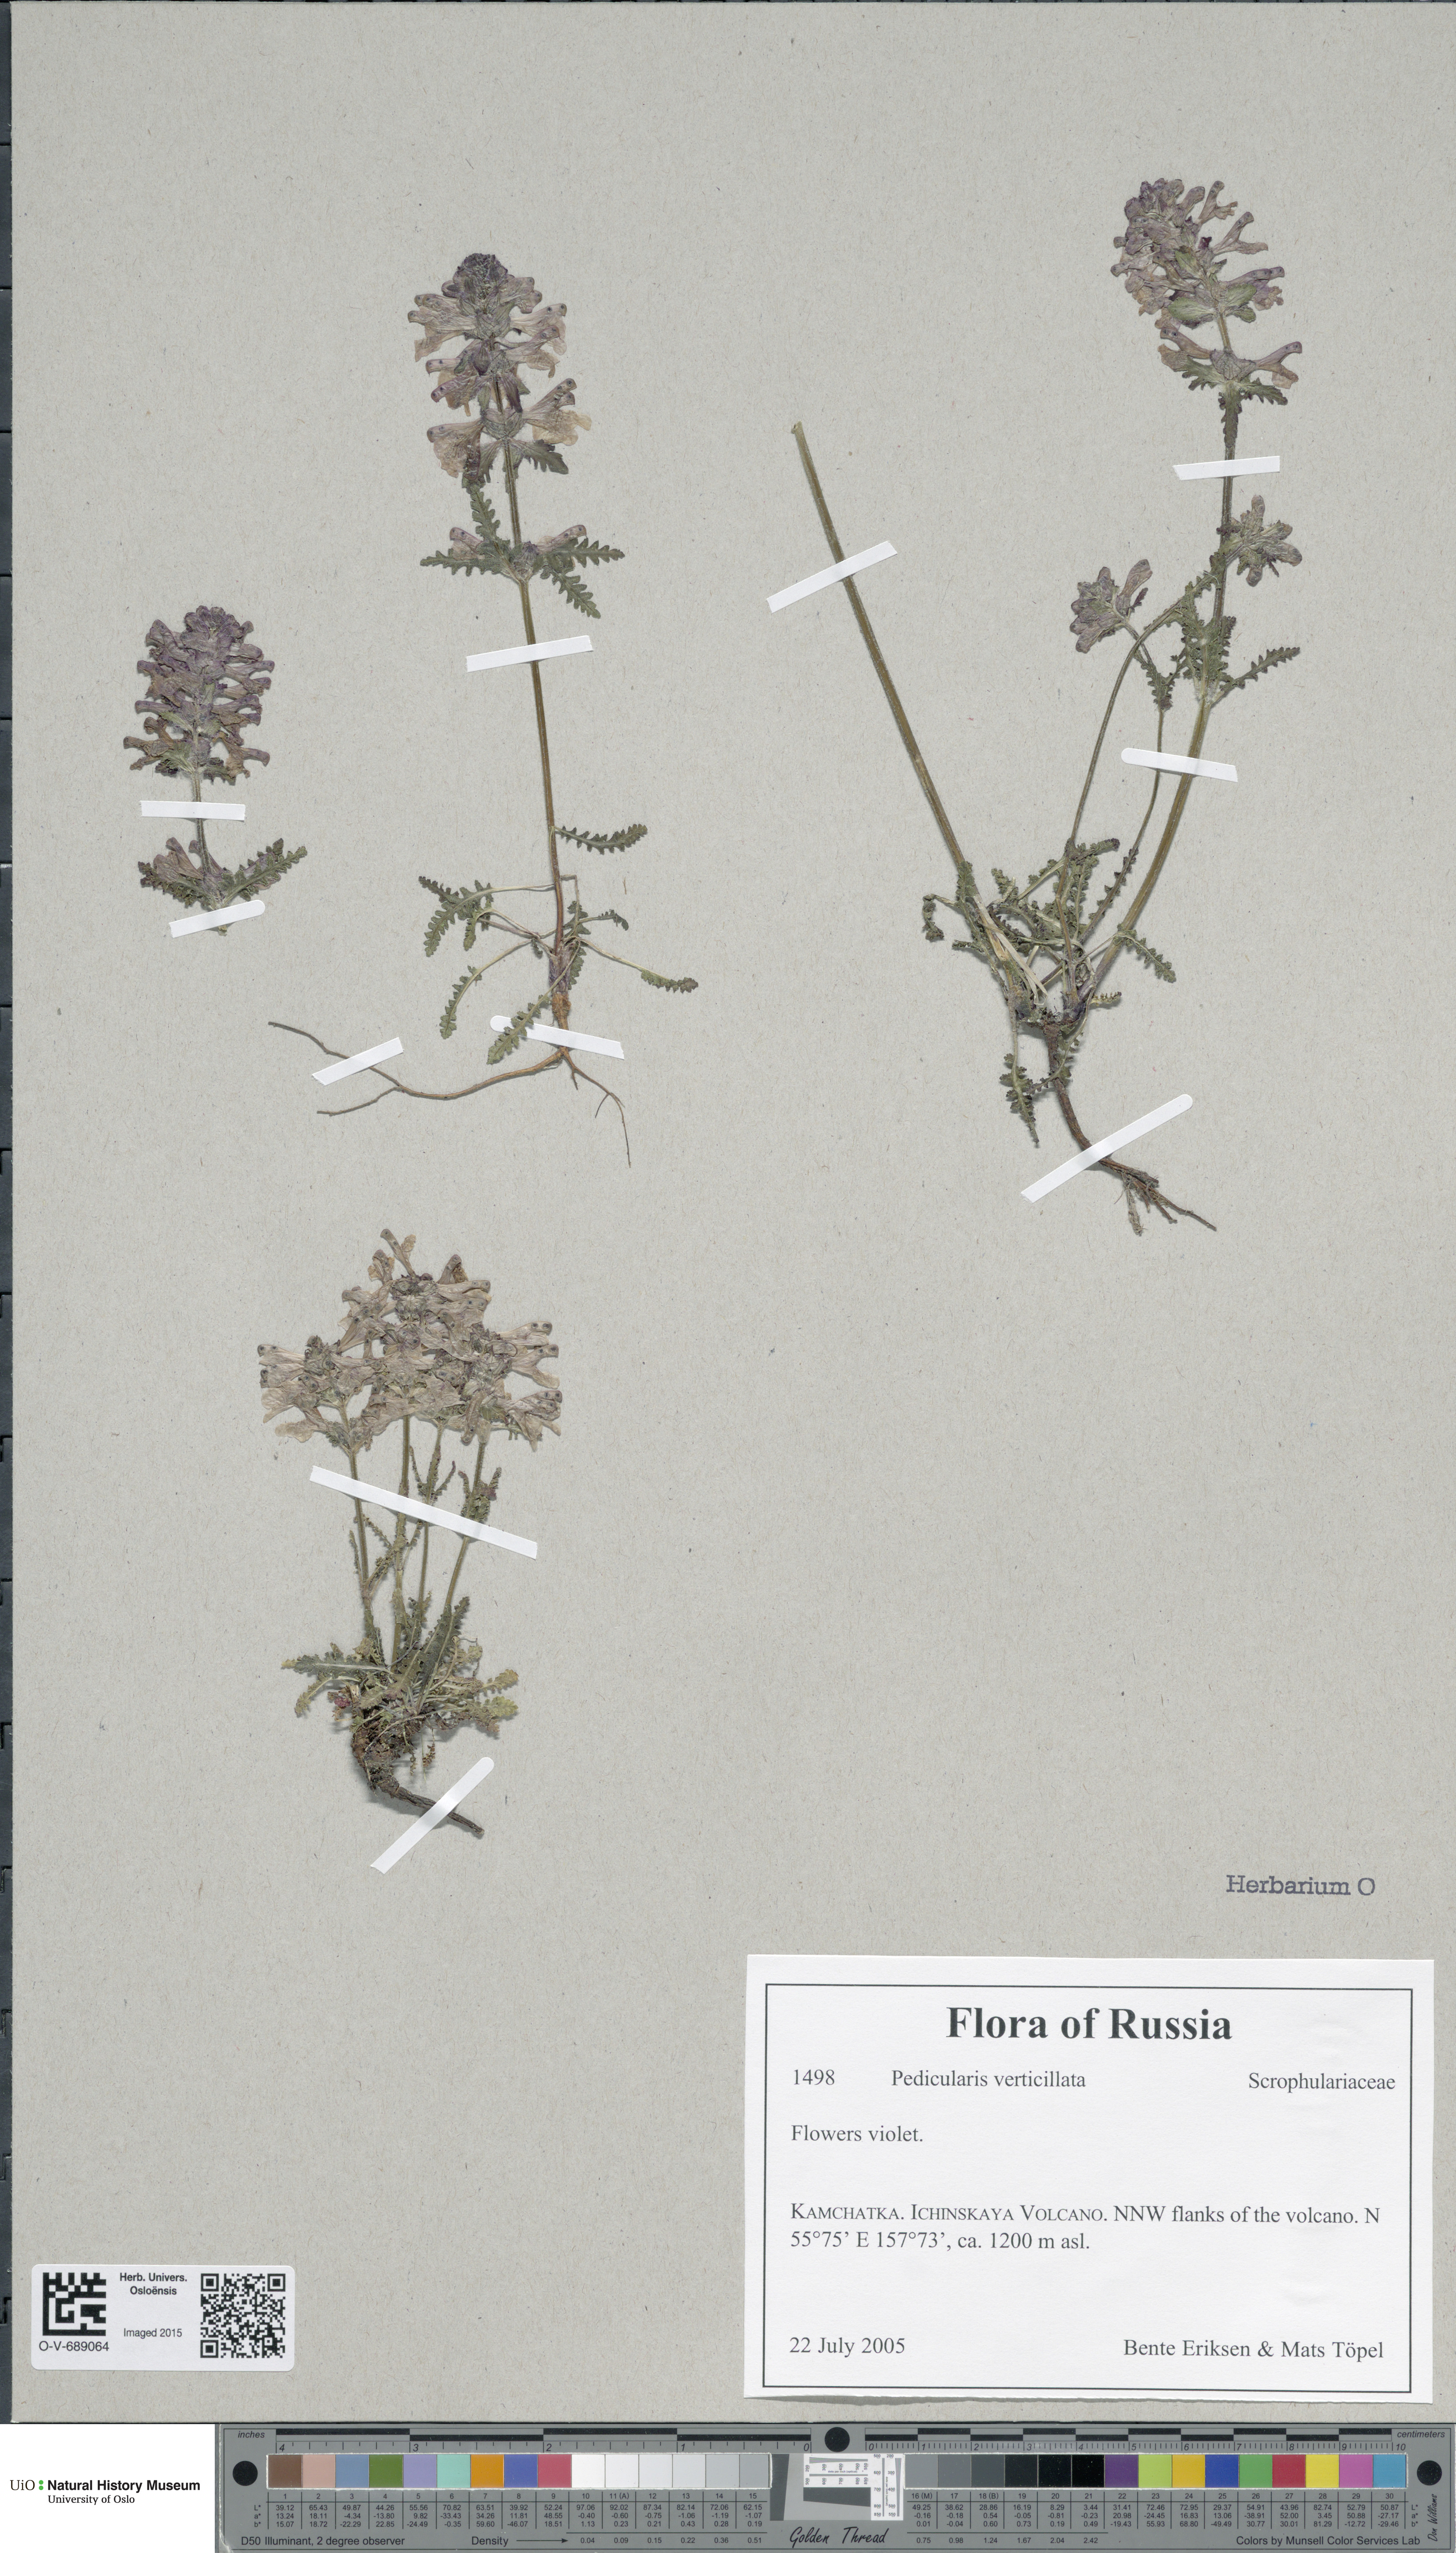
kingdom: Plantae
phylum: Tracheophyta
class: Magnoliopsida
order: Lamiales
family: Orobanchaceae
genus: Pedicularis
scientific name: Pedicularis verticillata
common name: Whorled lousewort
